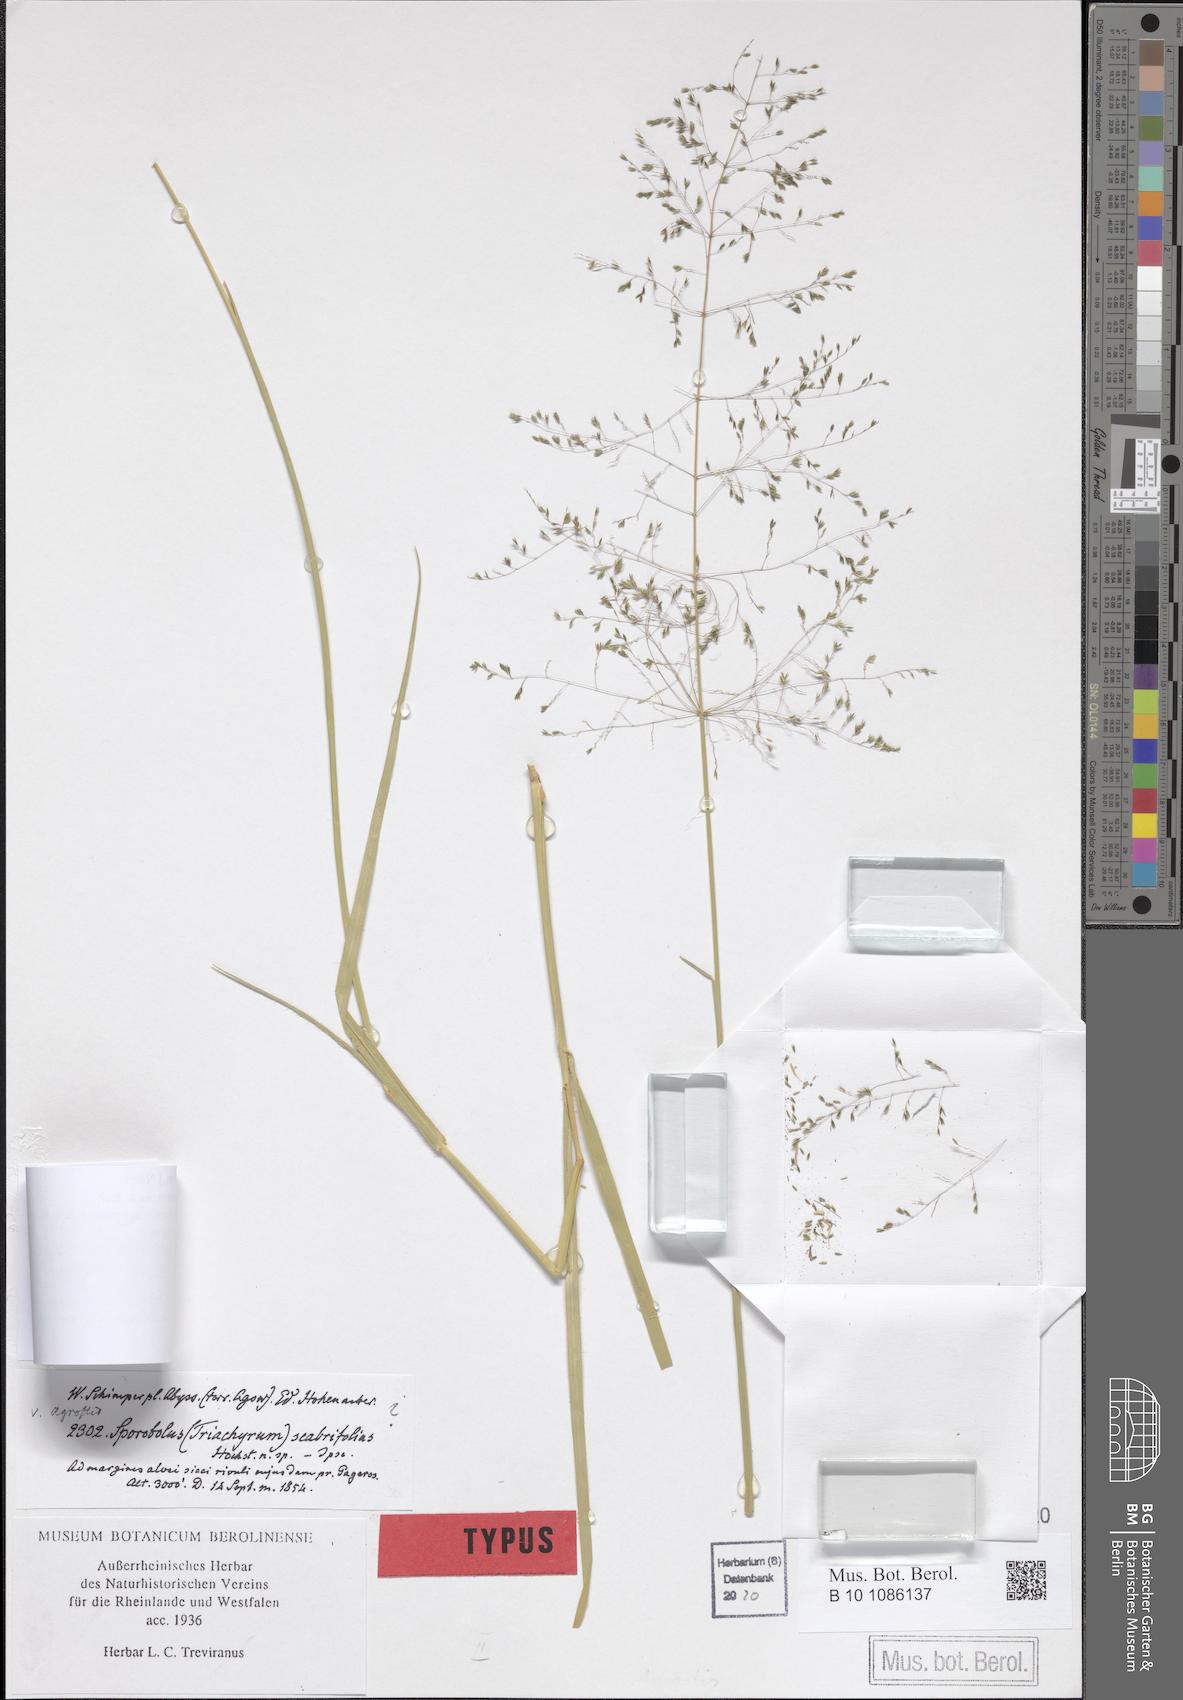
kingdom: Plantae
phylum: Tracheophyta
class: Liliopsida
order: Poales
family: Poaceae
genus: Sporobolus
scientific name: Sporobolus ioclados
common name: Pan dropseed
